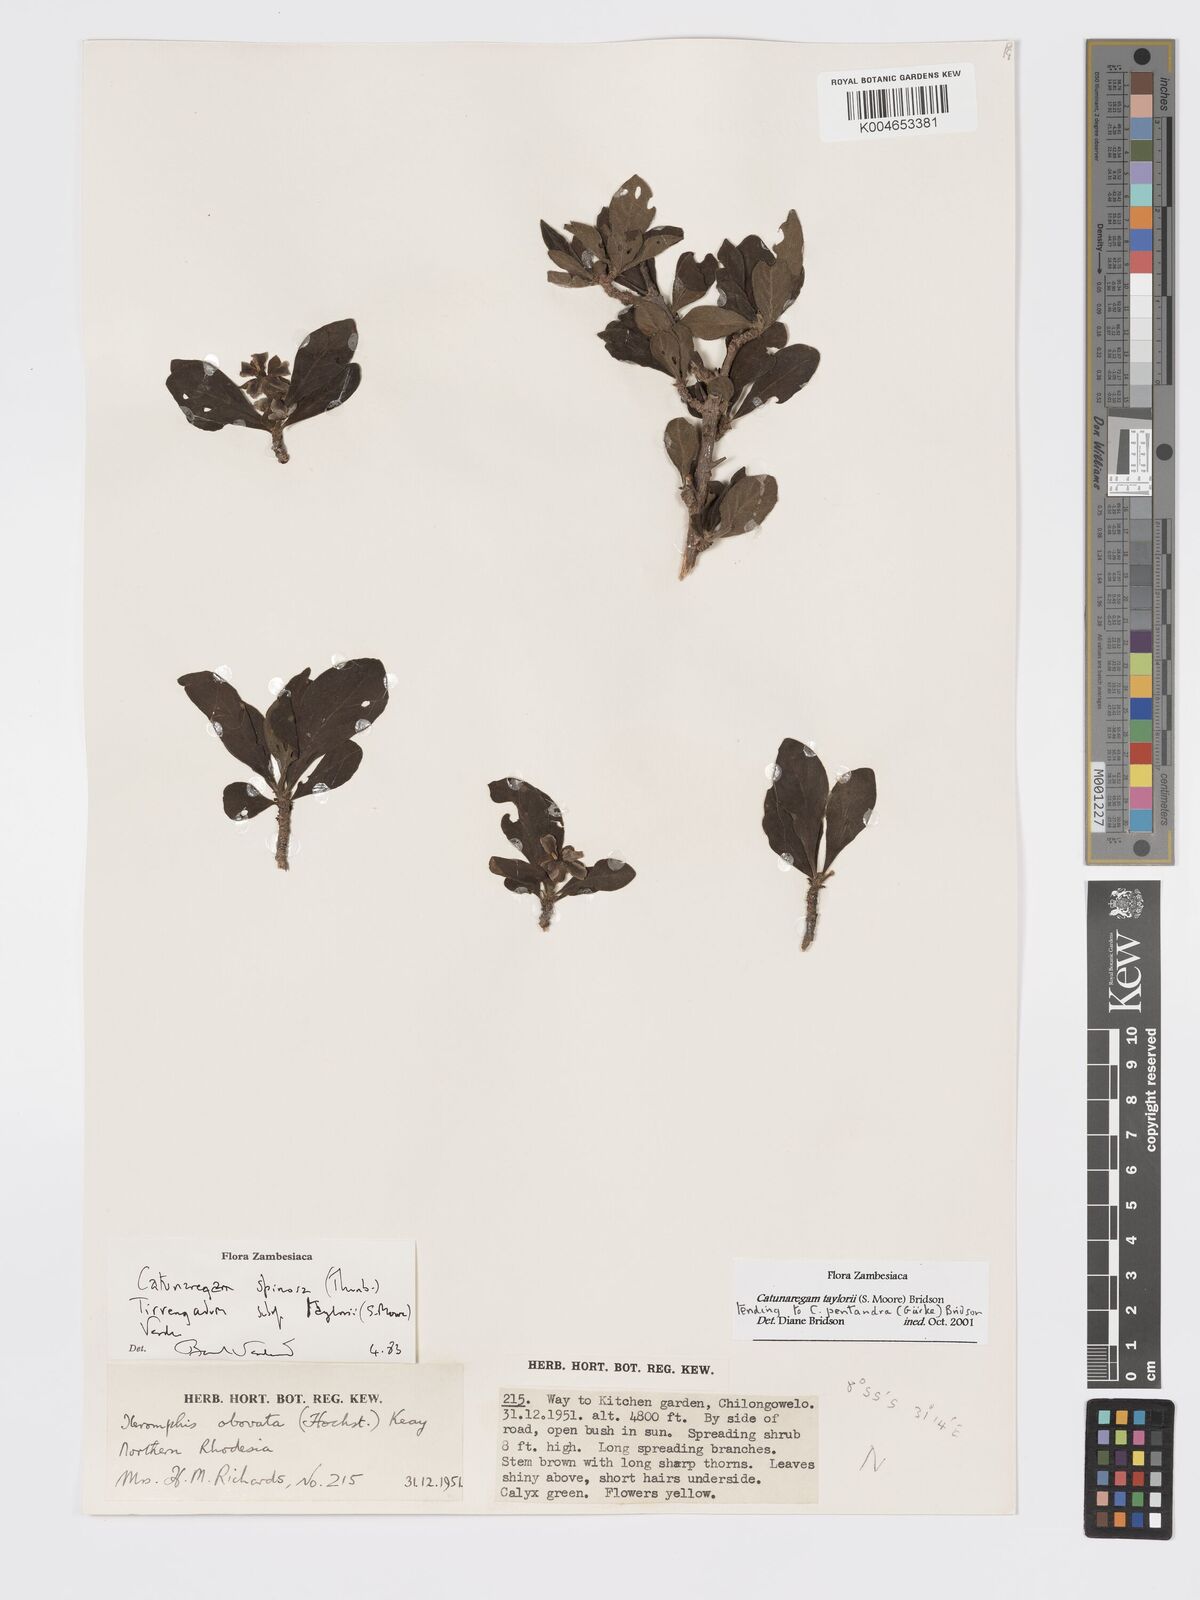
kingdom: Plantae
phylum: Tracheophyta
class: Magnoliopsida
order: Gentianales
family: Rubiaceae
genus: Catunaregam
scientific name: Catunaregam
